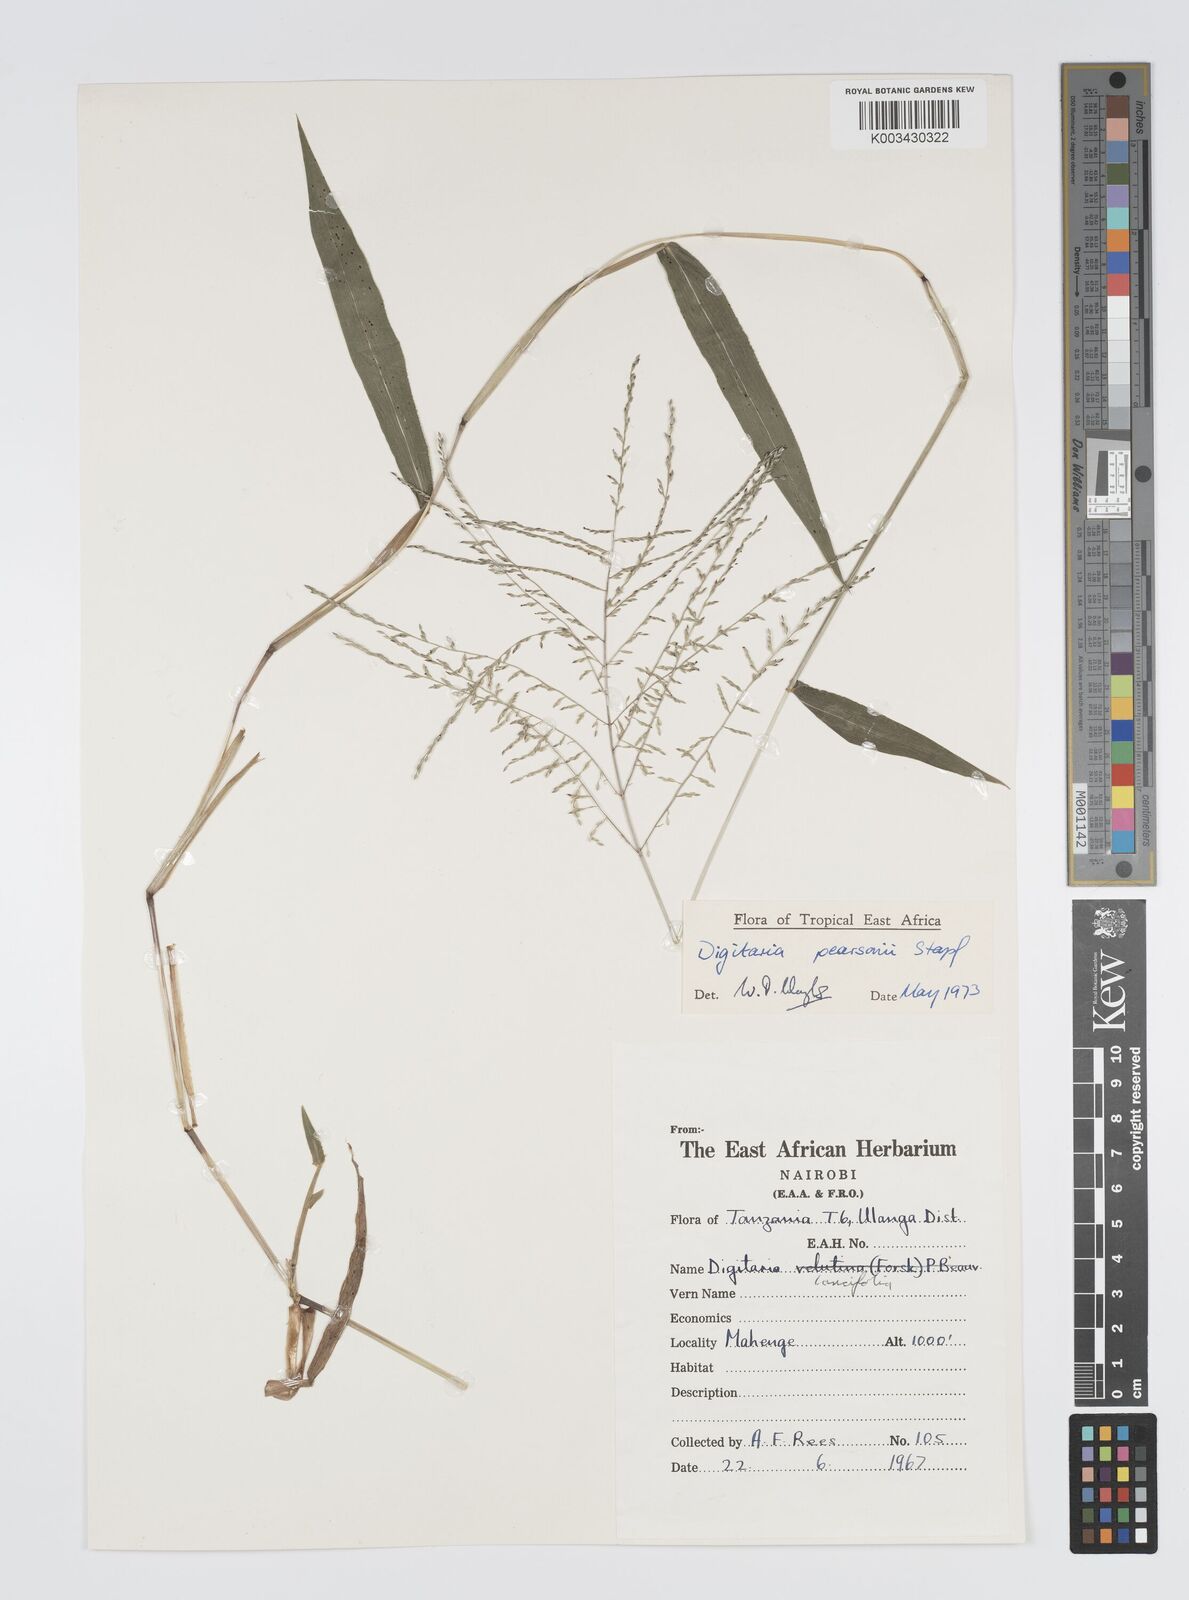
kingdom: Plantae
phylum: Tracheophyta
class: Liliopsida
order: Poales
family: Poaceae
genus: Digitaria
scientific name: Digitaria pearsonii
